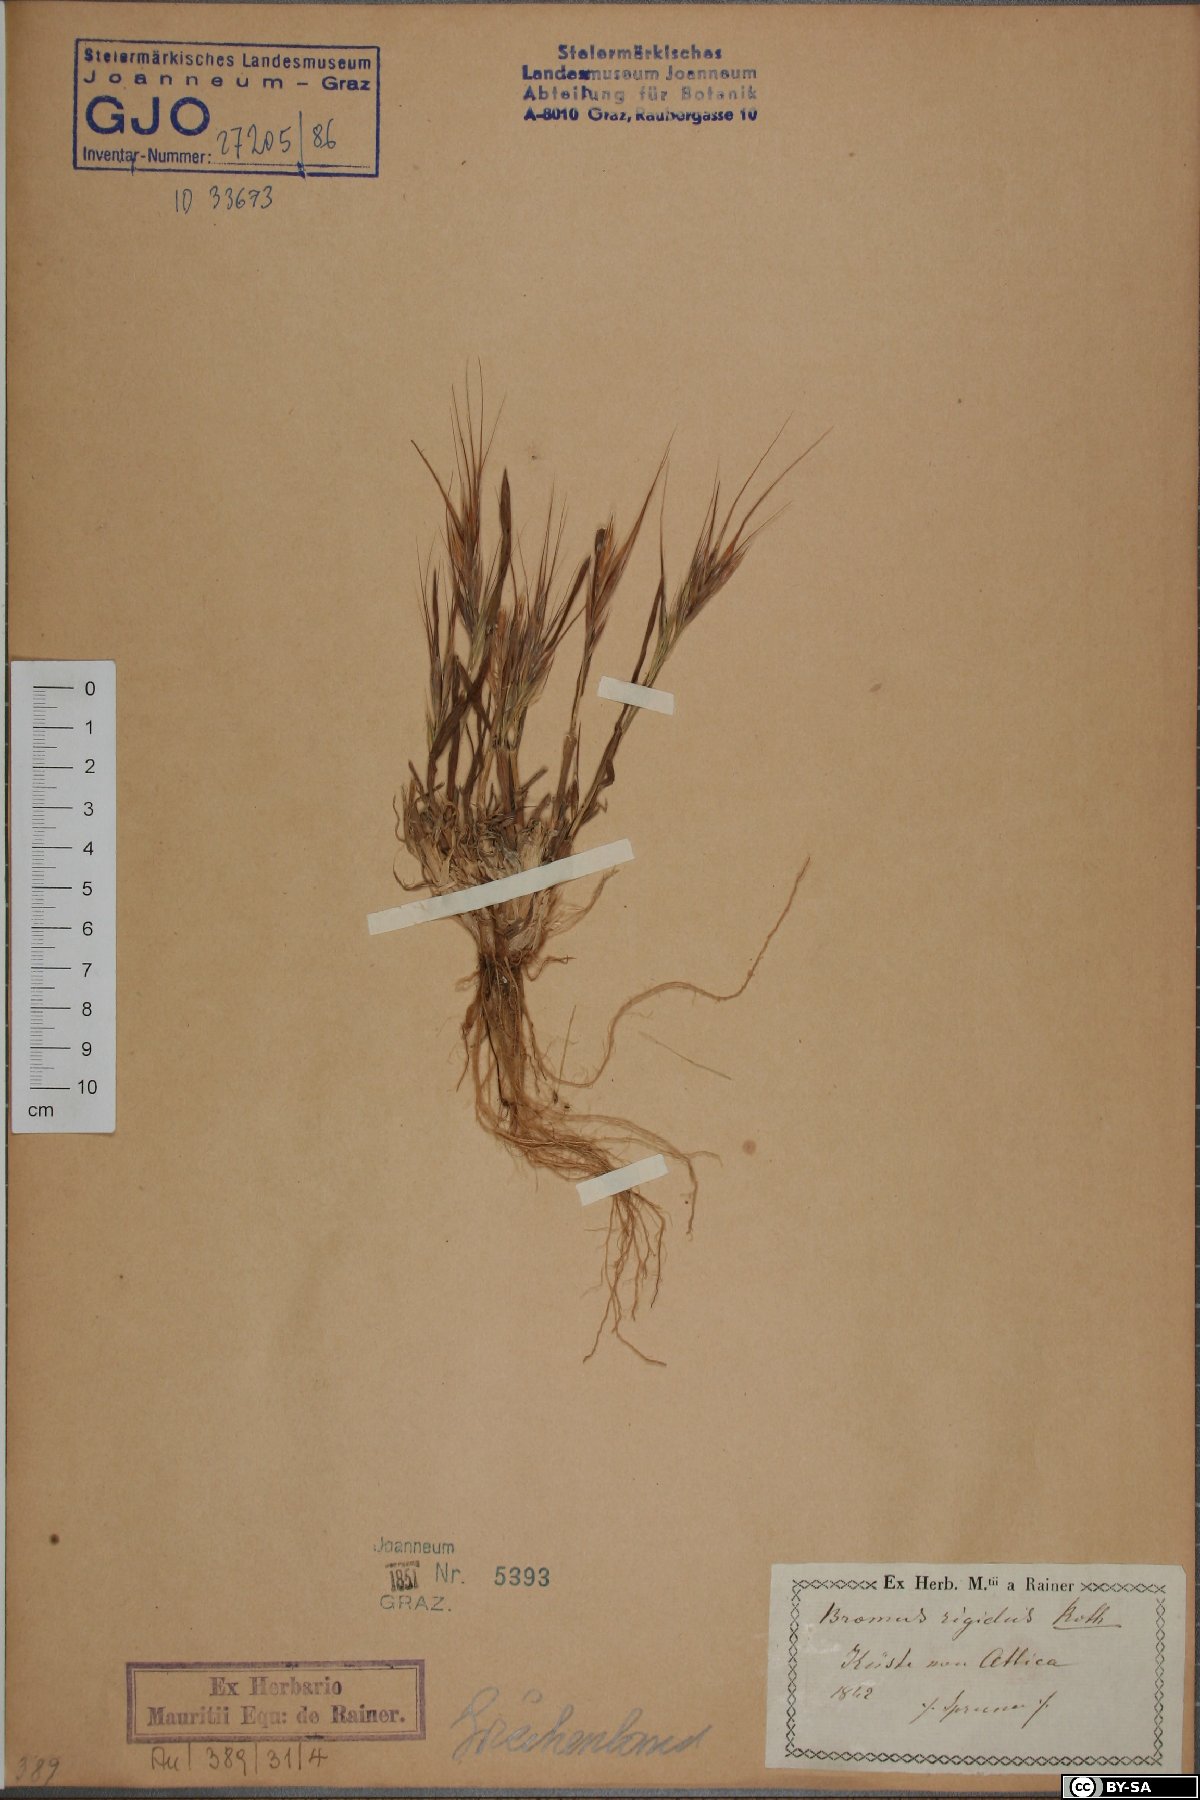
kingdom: Plantae
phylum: Tracheophyta
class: Liliopsida
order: Poales
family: Poaceae
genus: Bromus
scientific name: Bromus rigidus
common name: Ripgut brome
